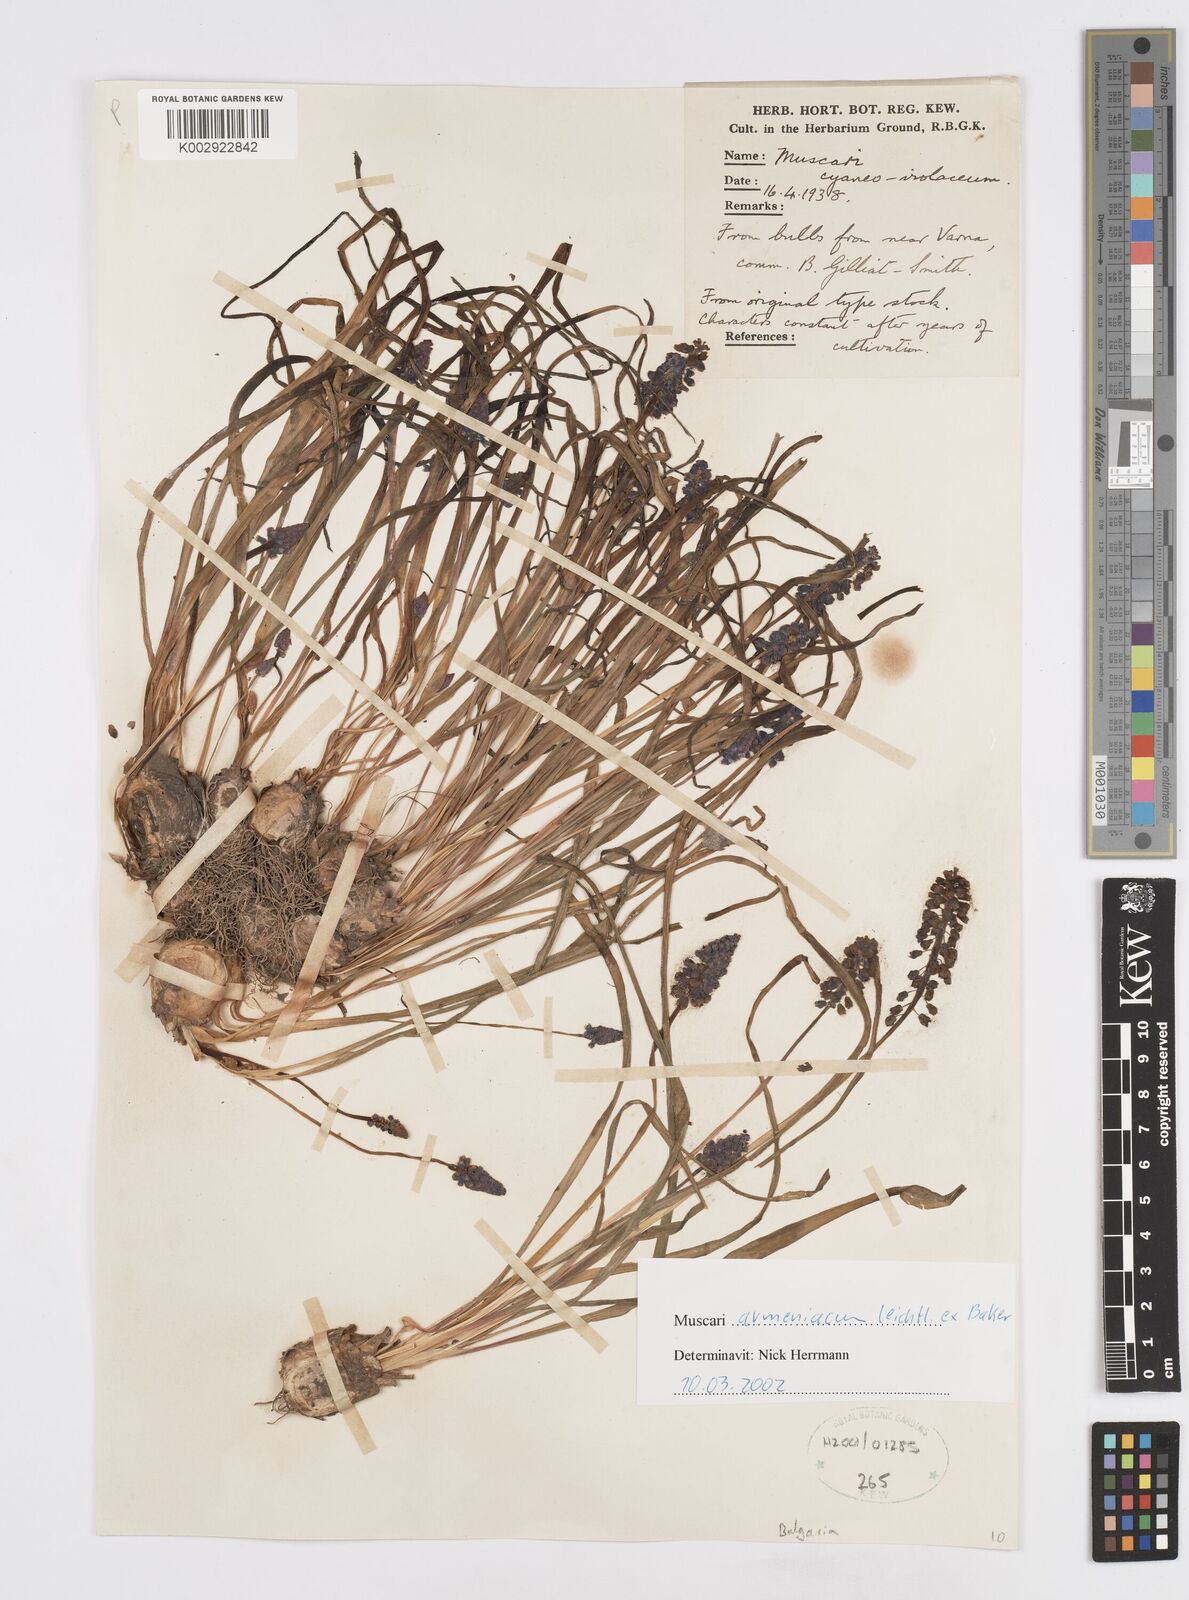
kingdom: Plantae
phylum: Tracheophyta
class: Liliopsida
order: Asparagales
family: Asparagaceae
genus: Muscari
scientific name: Muscari
